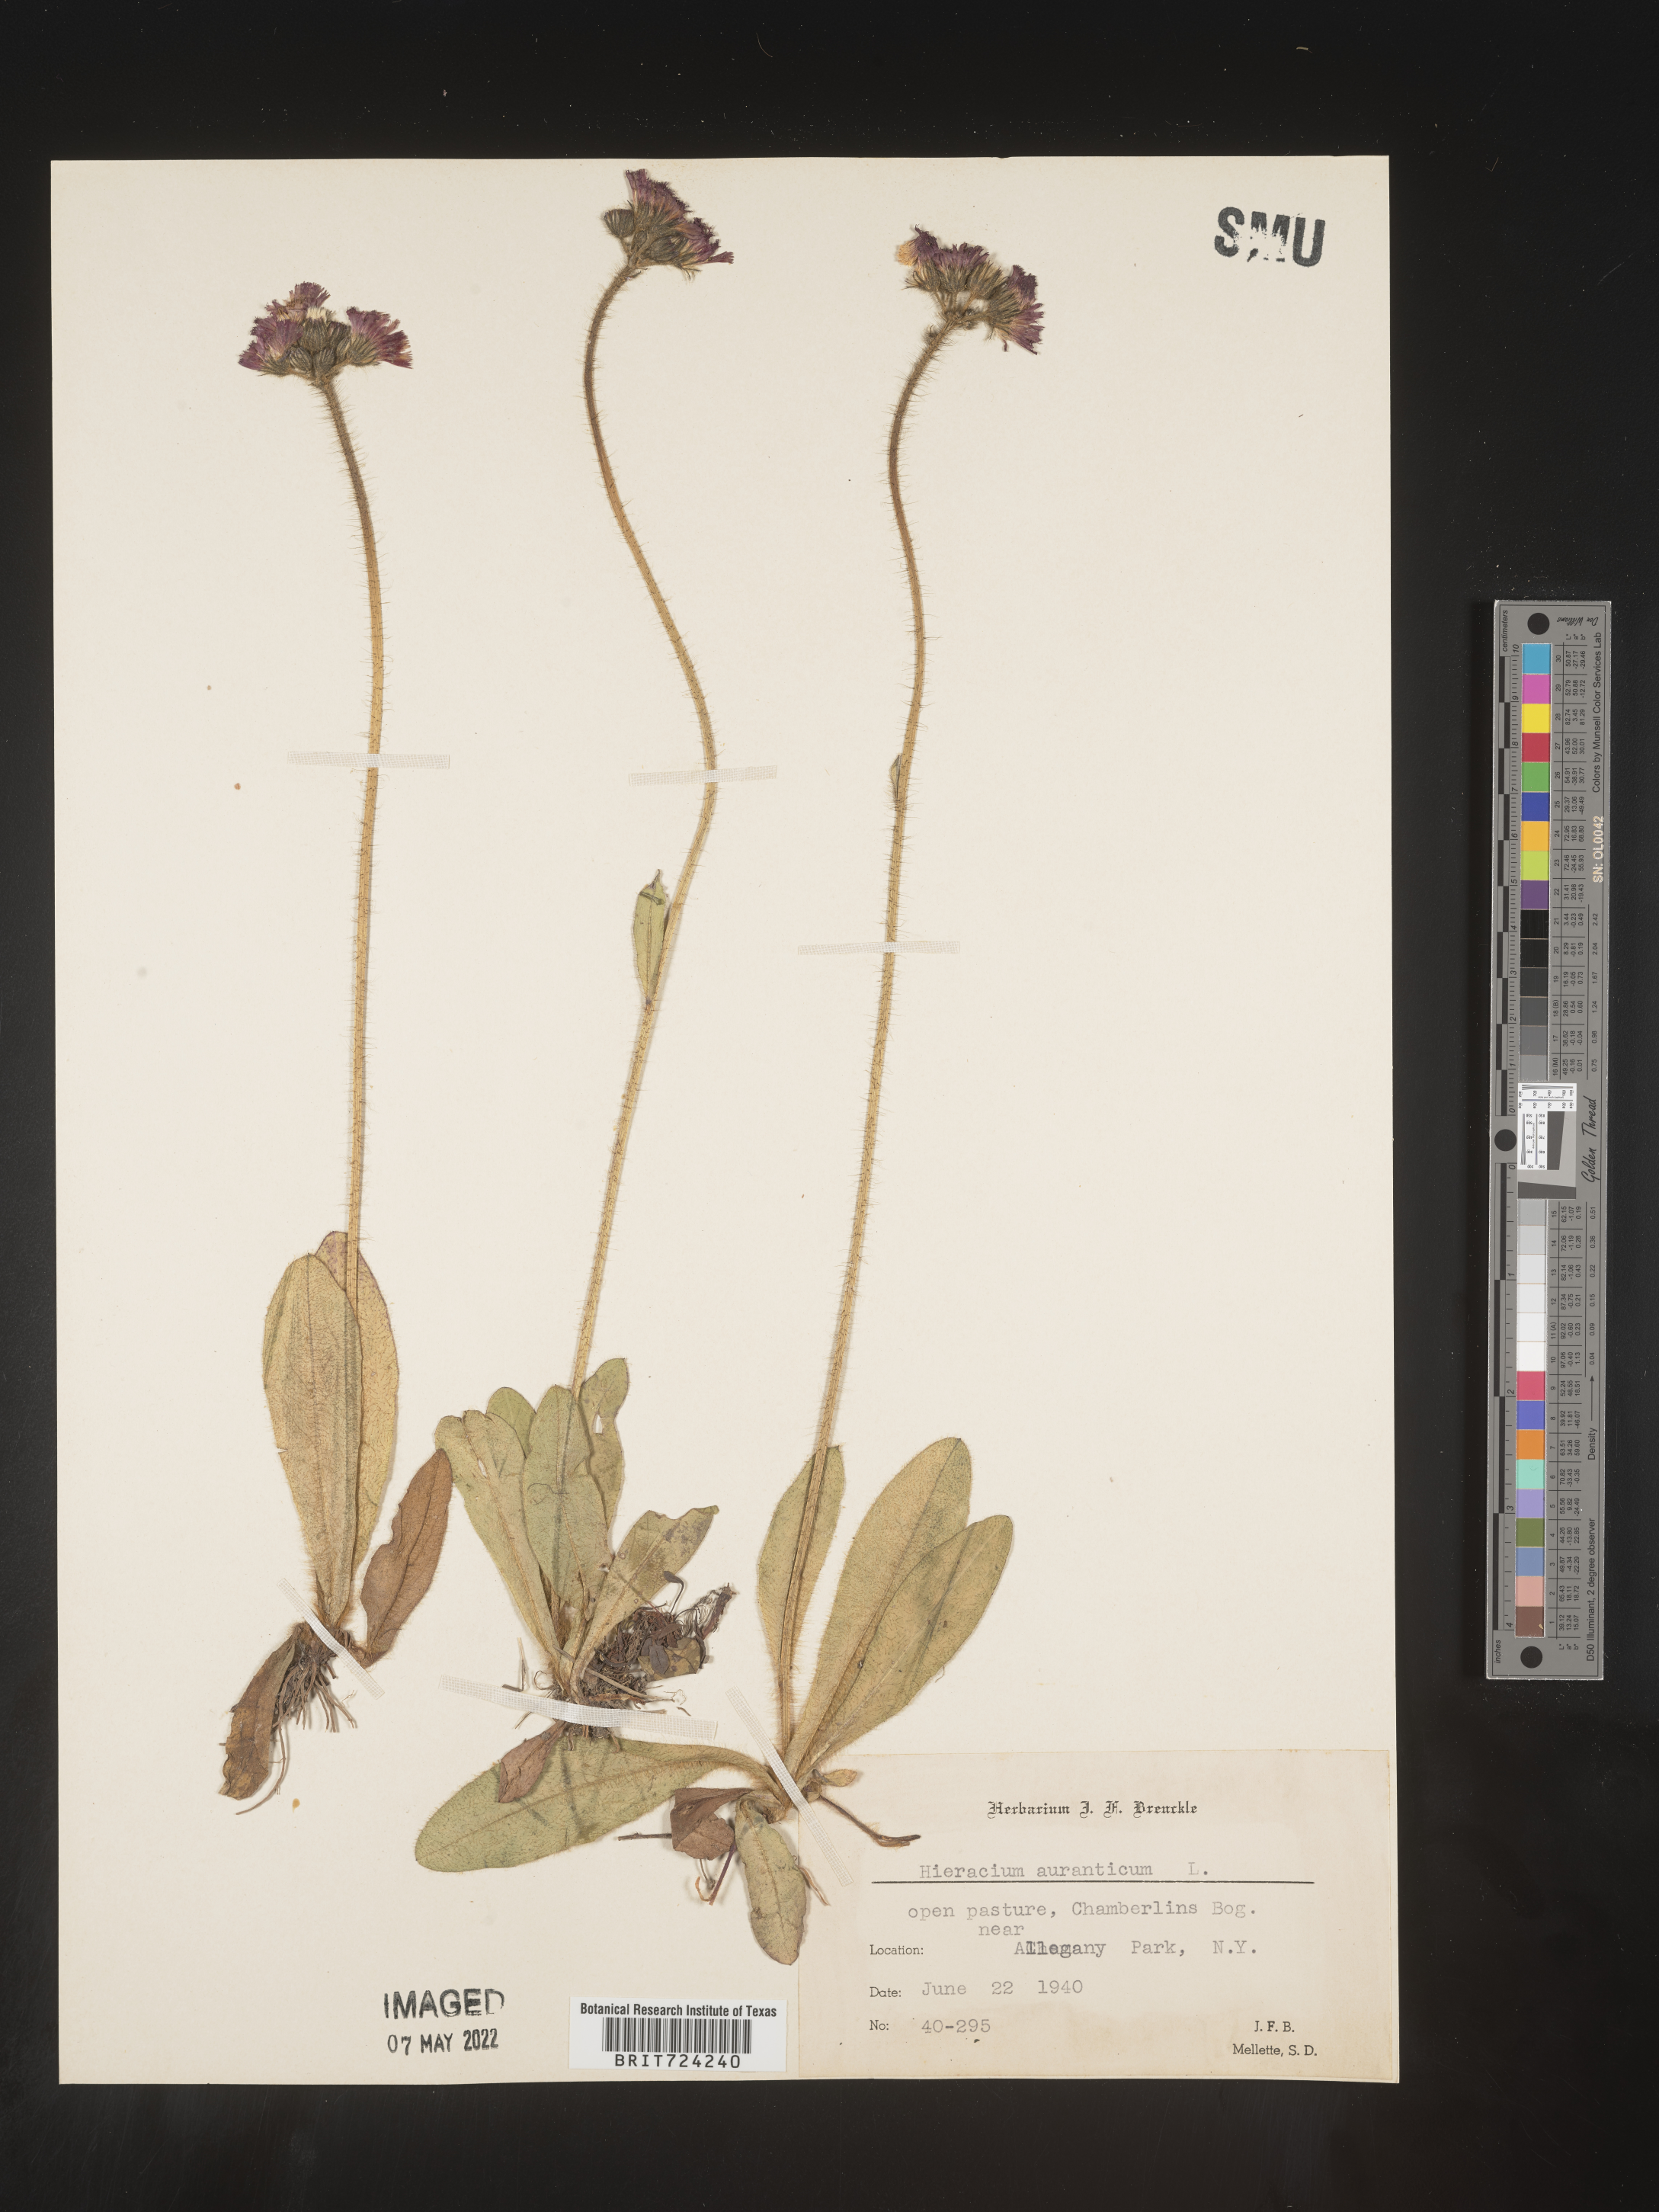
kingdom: Plantae
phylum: Tracheophyta
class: Magnoliopsida
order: Asterales
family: Asteraceae
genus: Pilosella
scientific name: Pilosella aurantiaca
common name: Fox-and-cubs
